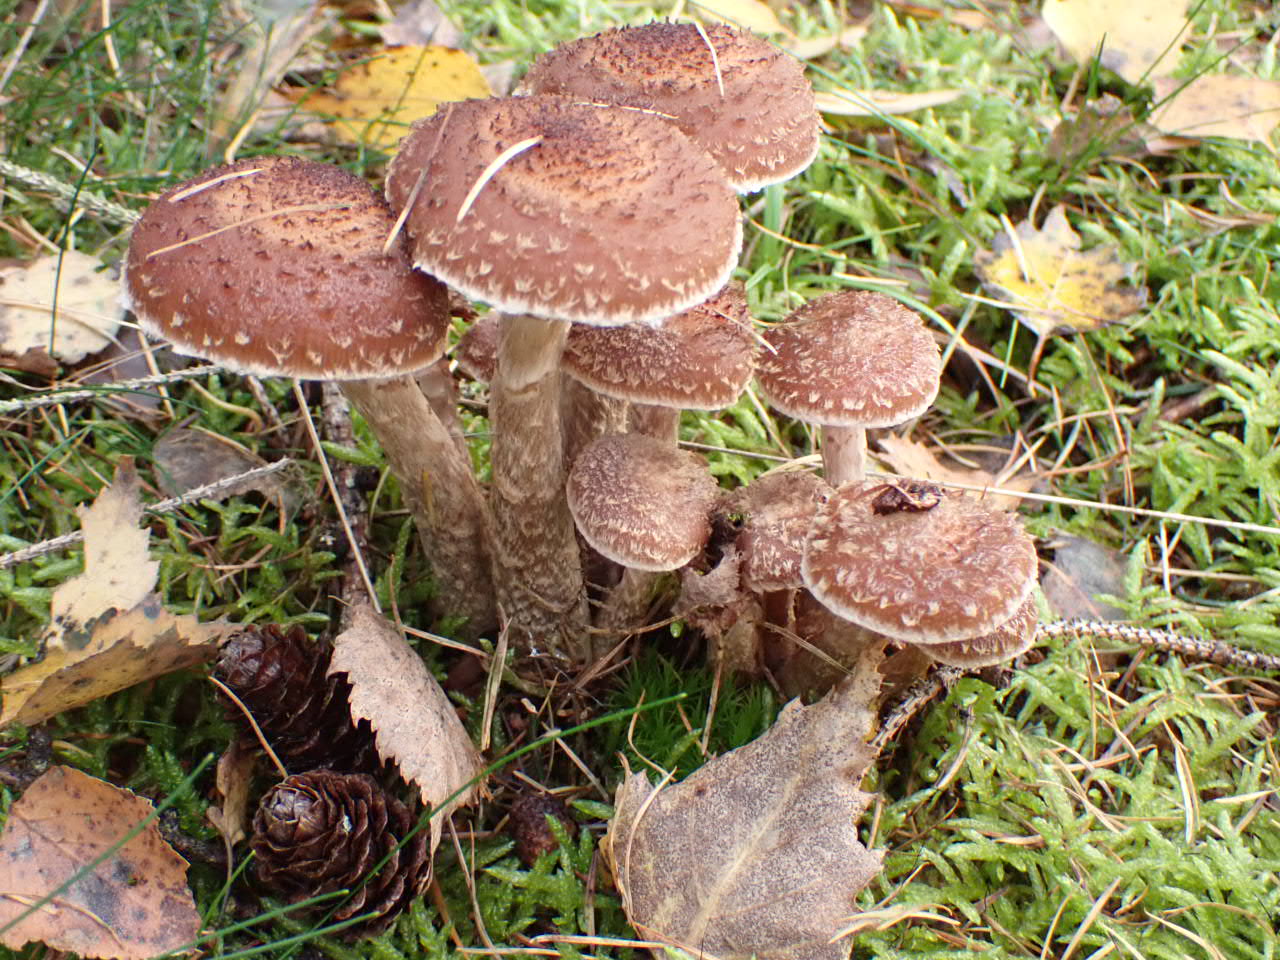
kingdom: Fungi
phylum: Basidiomycota
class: Agaricomycetes
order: Agaricales
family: Physalacriaceae
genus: Armillaria
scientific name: Armillaria ostoyae
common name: mørk honningsvamp
